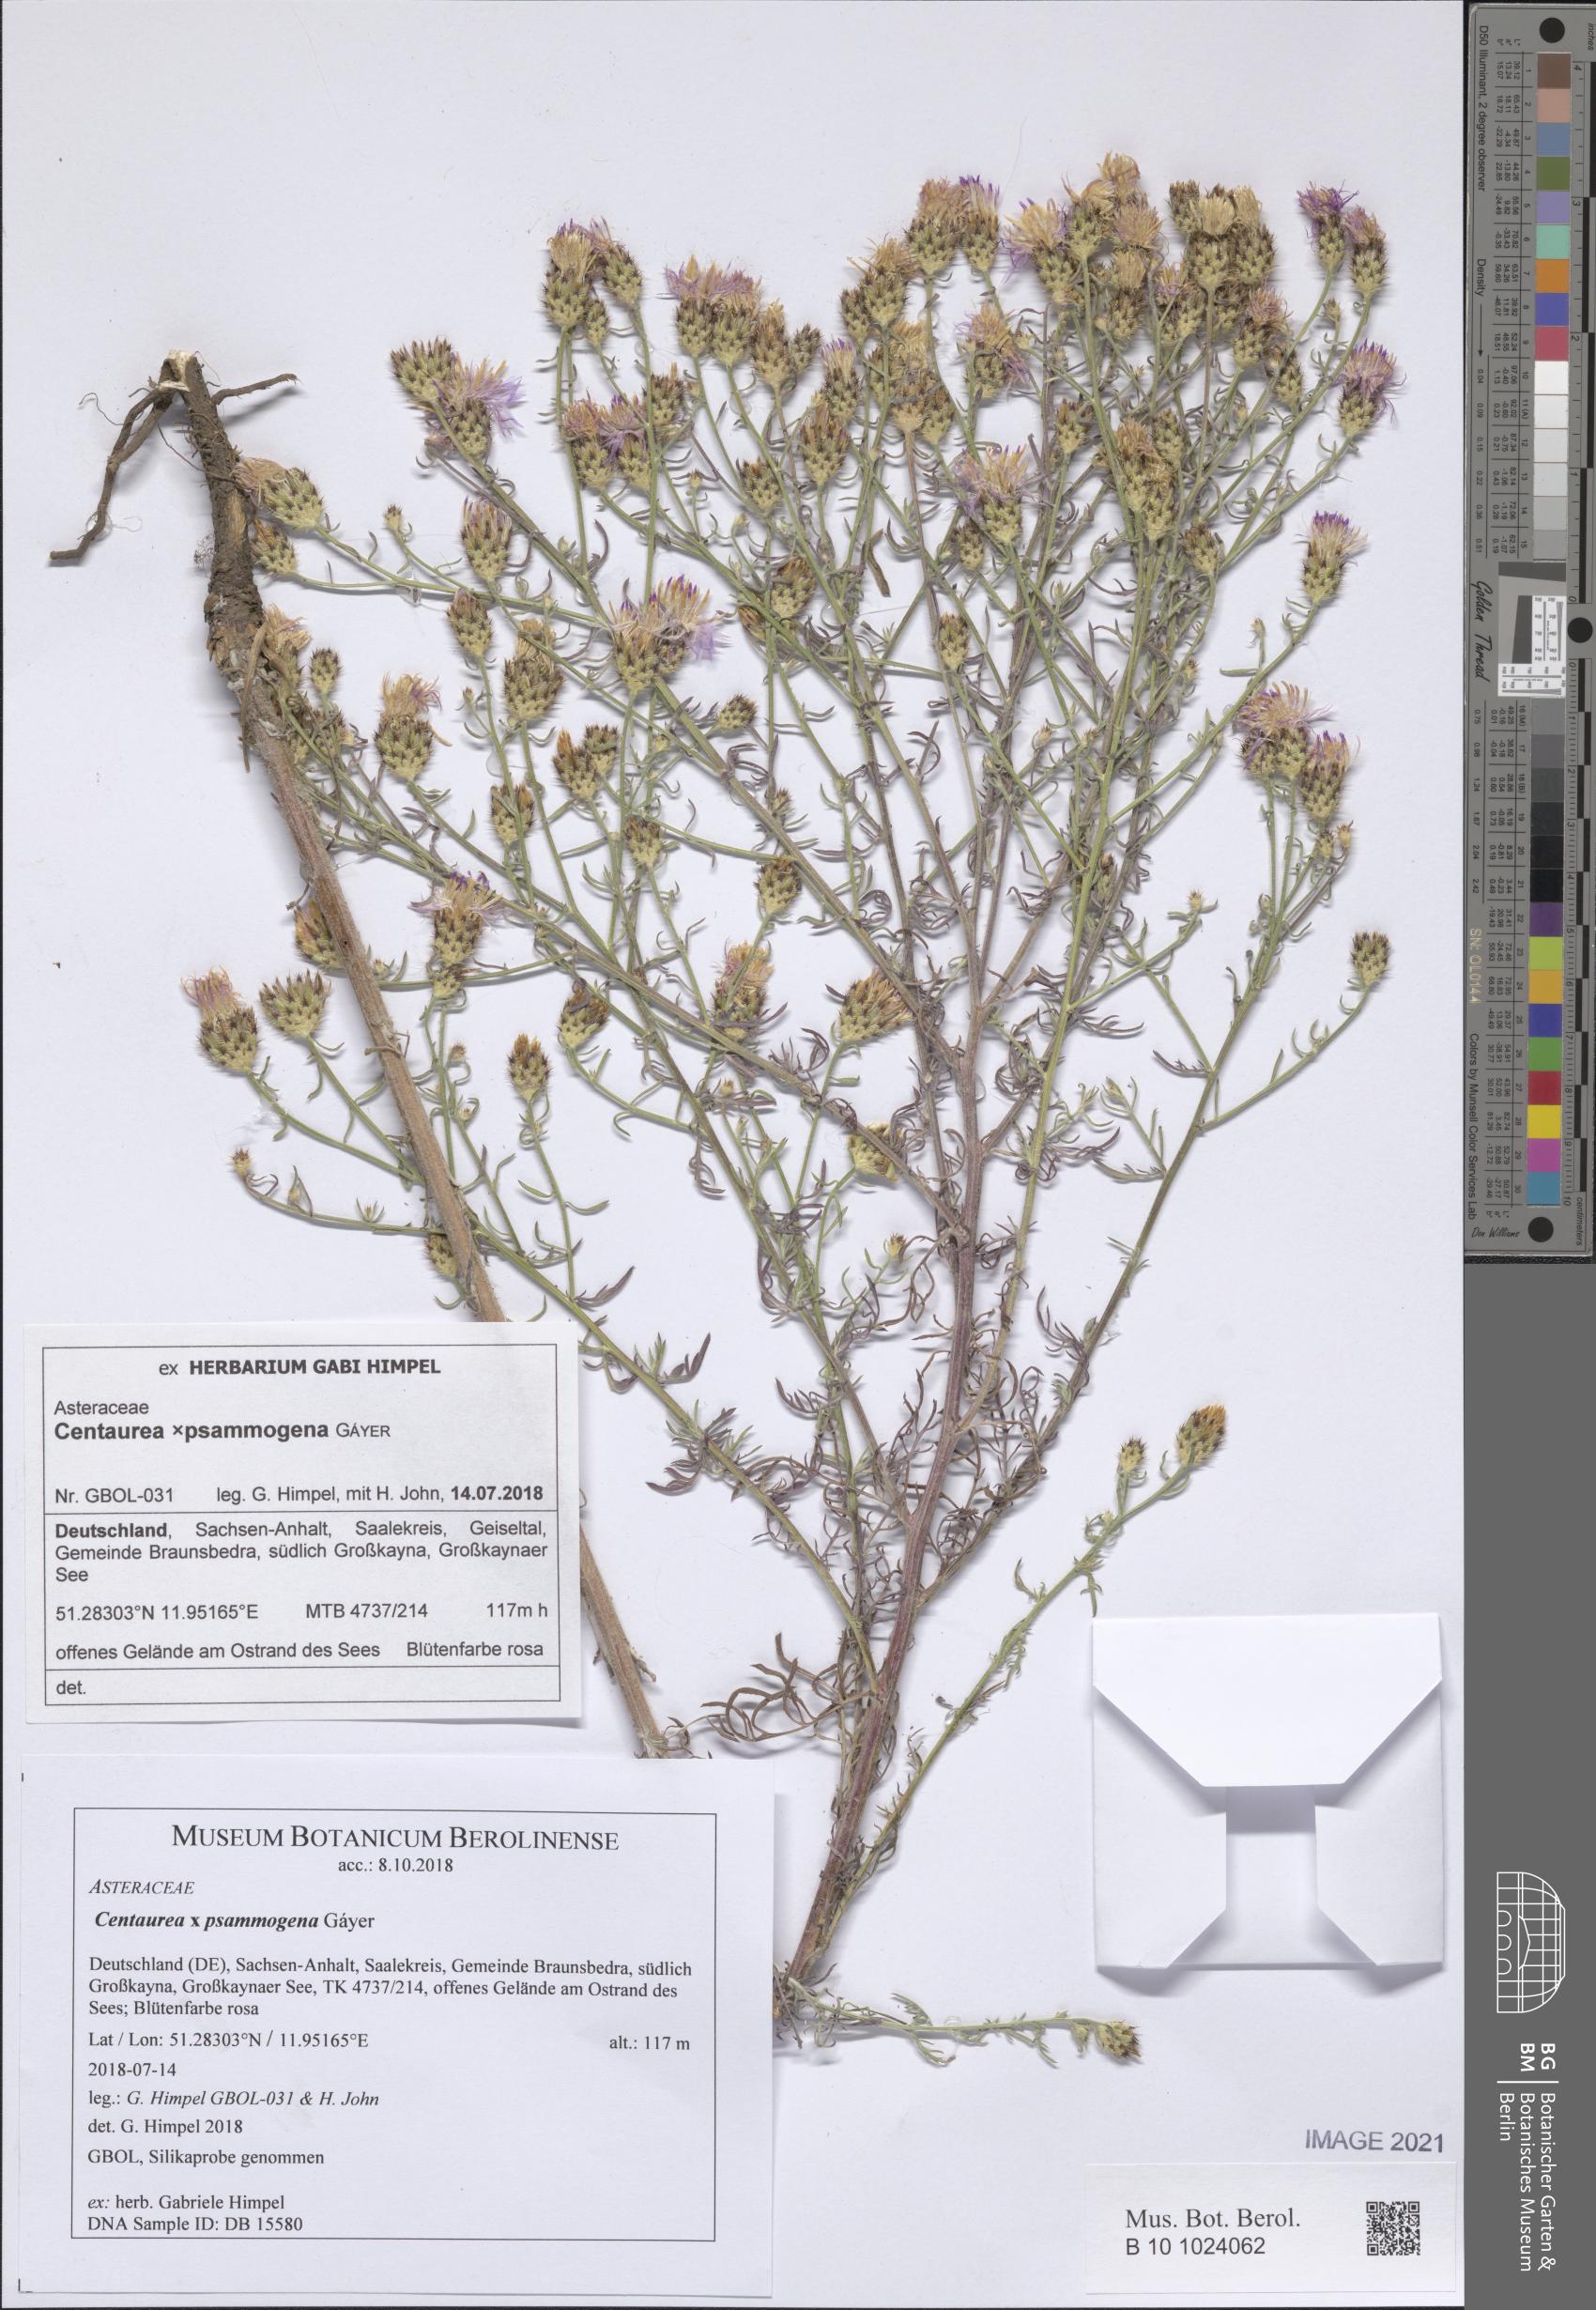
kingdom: Plantae
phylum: Tracheophyta
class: Magnoliopsida
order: Asterales
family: Asteraceae
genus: Centaurea
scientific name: Centaurea psammogena
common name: Diffuse-spotted knapweed hybrid
